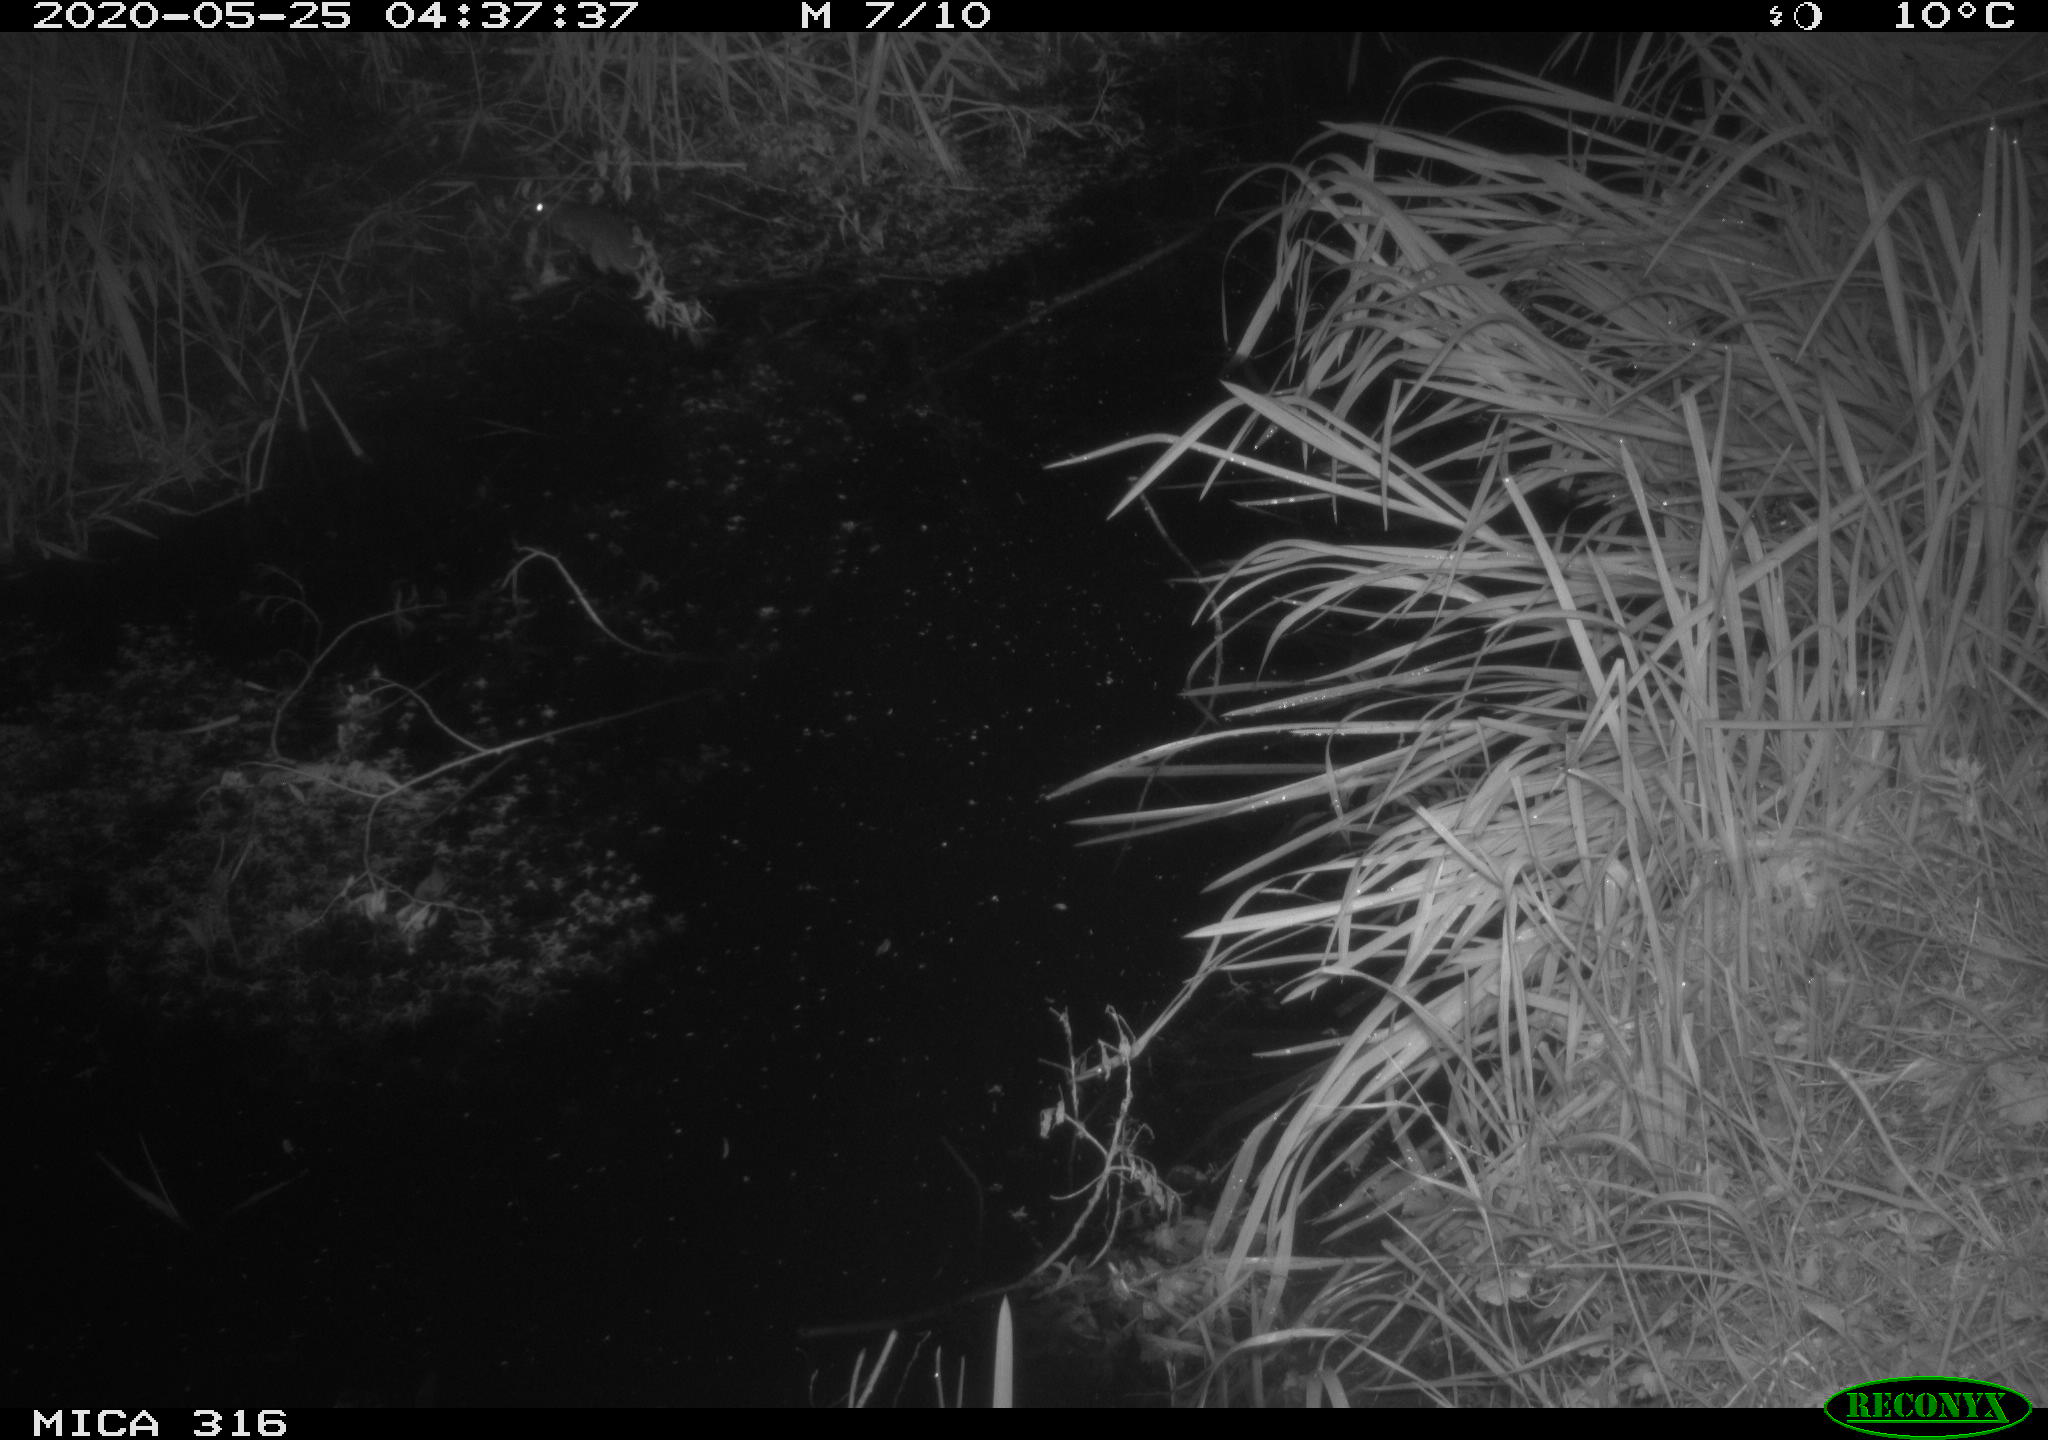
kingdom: Animalia
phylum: Chordata
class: Mammalia
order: Rodentia
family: Muridae
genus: Rattus
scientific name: Rattus norvegicus
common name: Brown rat
